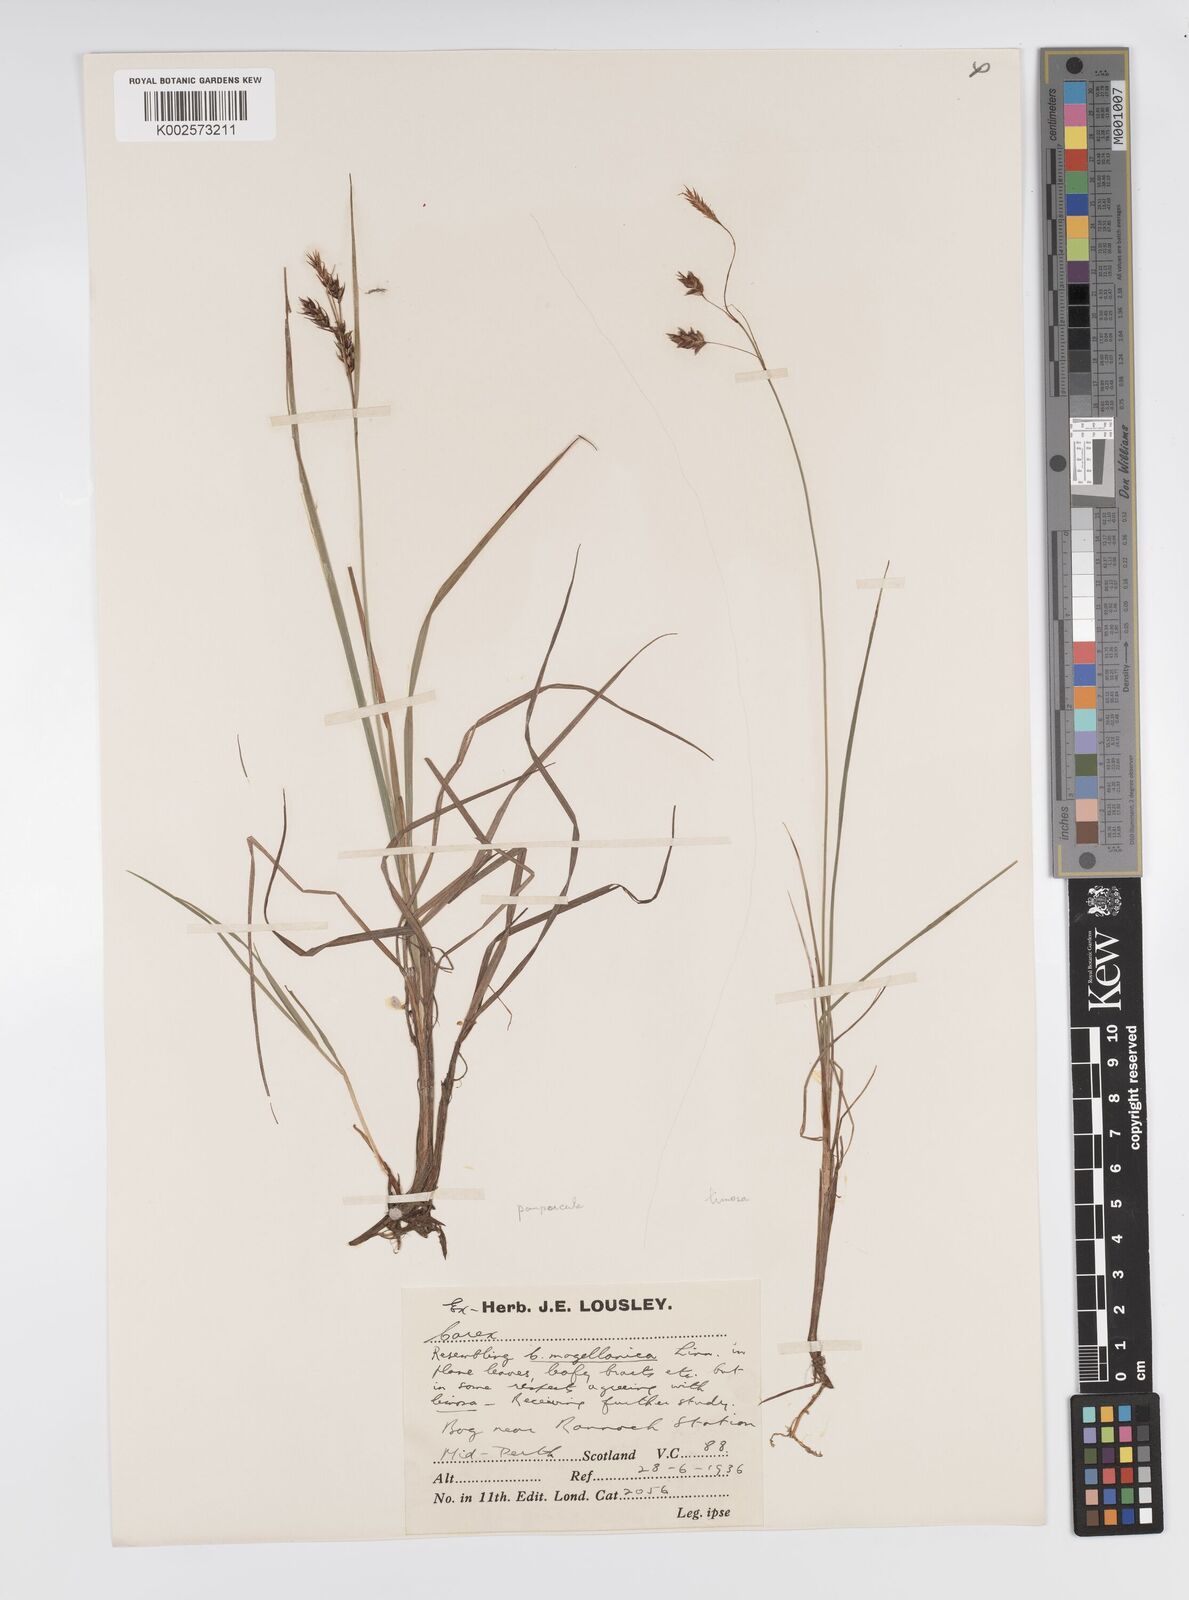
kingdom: Plantae
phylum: Tracheophyta
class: Liliopsida
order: Poales
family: Cyperaceae
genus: Carex
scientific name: Carex magellanica
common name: Bog sedge
